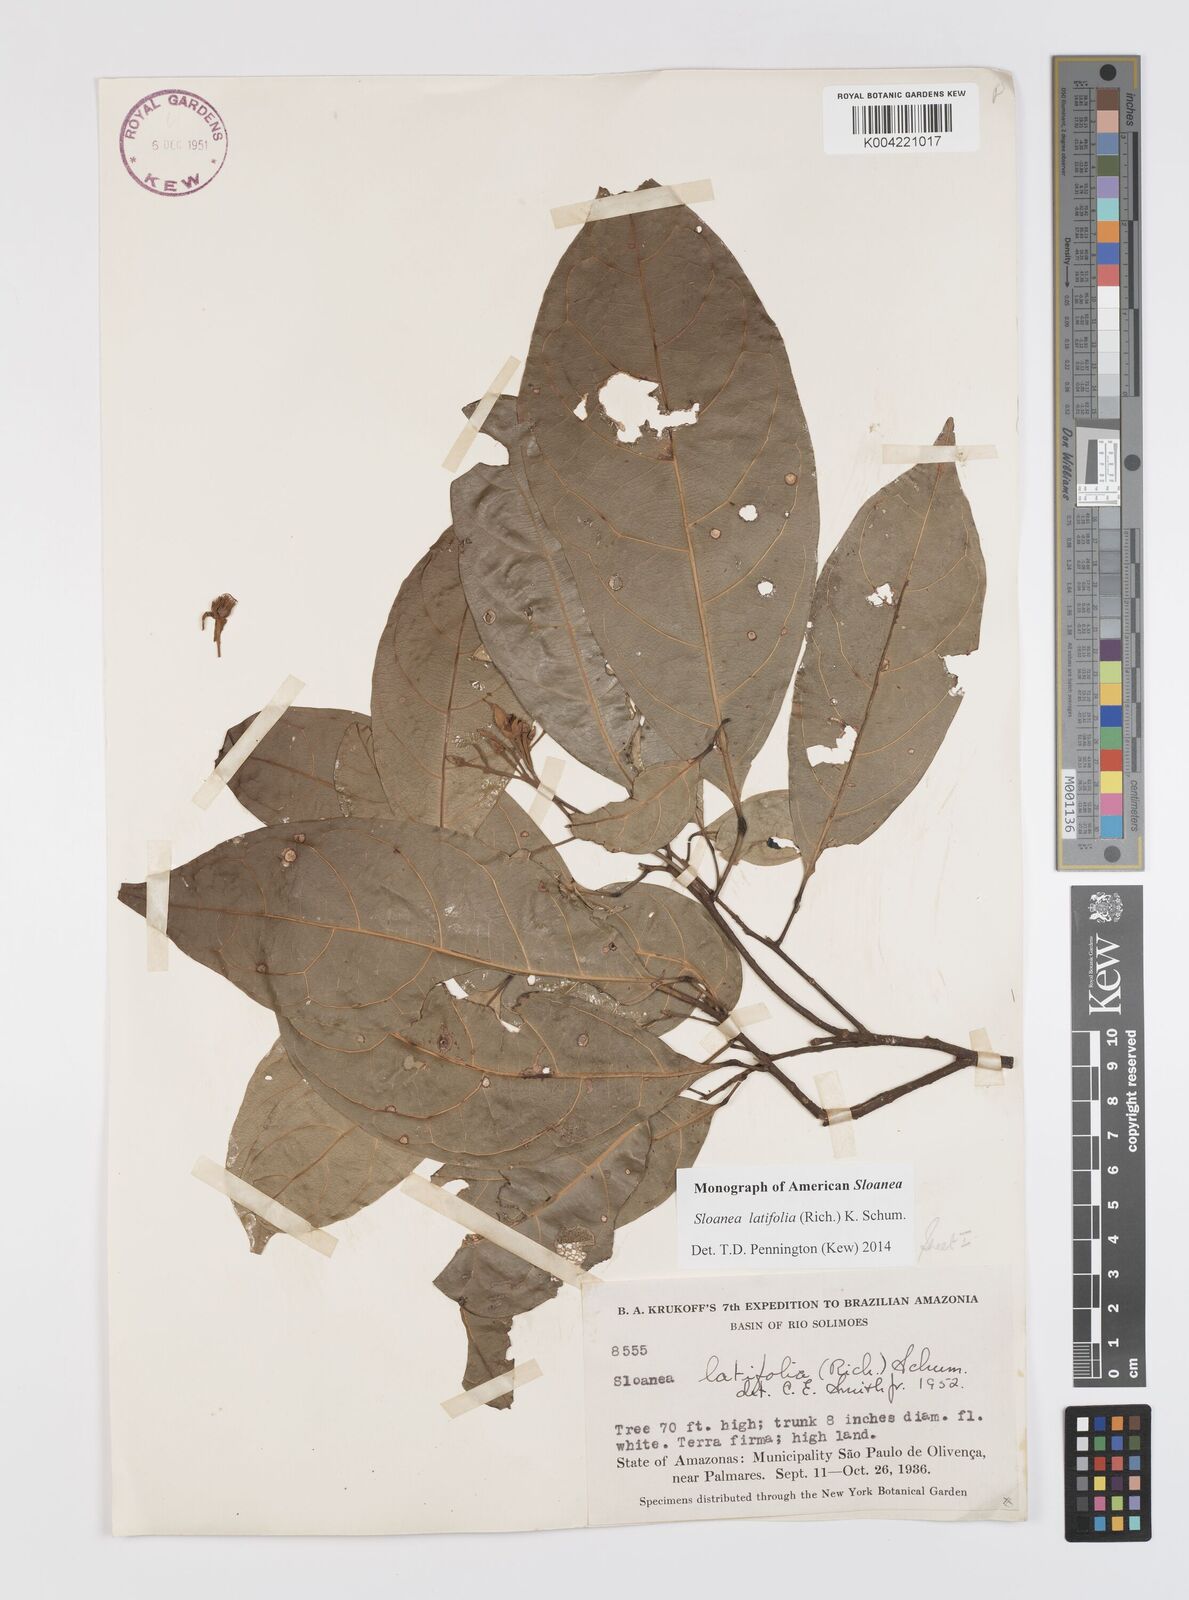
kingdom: Plantae
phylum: Tracheophyta
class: Magnoliopsida
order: Oxalidales
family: Elaeocarpaceae
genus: Sloanea
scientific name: Sloanea latifolia
